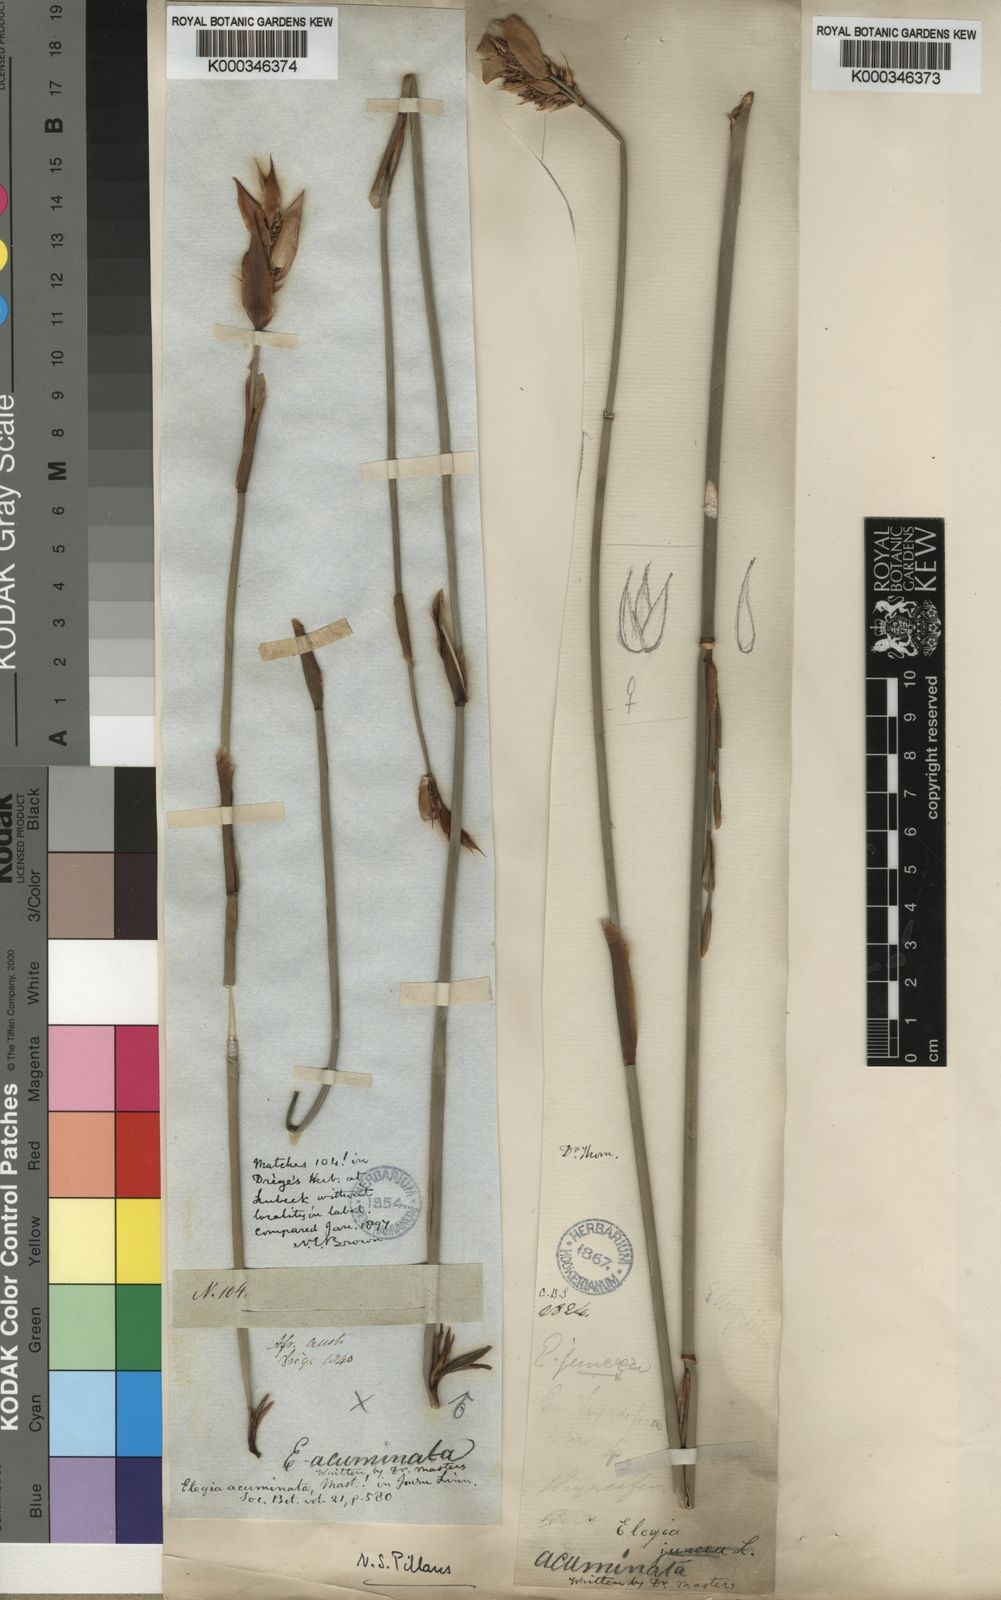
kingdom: Plantae
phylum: Tracheophyta
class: Liliopsida
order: Poales
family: Restionaceae
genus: Elegia
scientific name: Elegia thyrsifera
